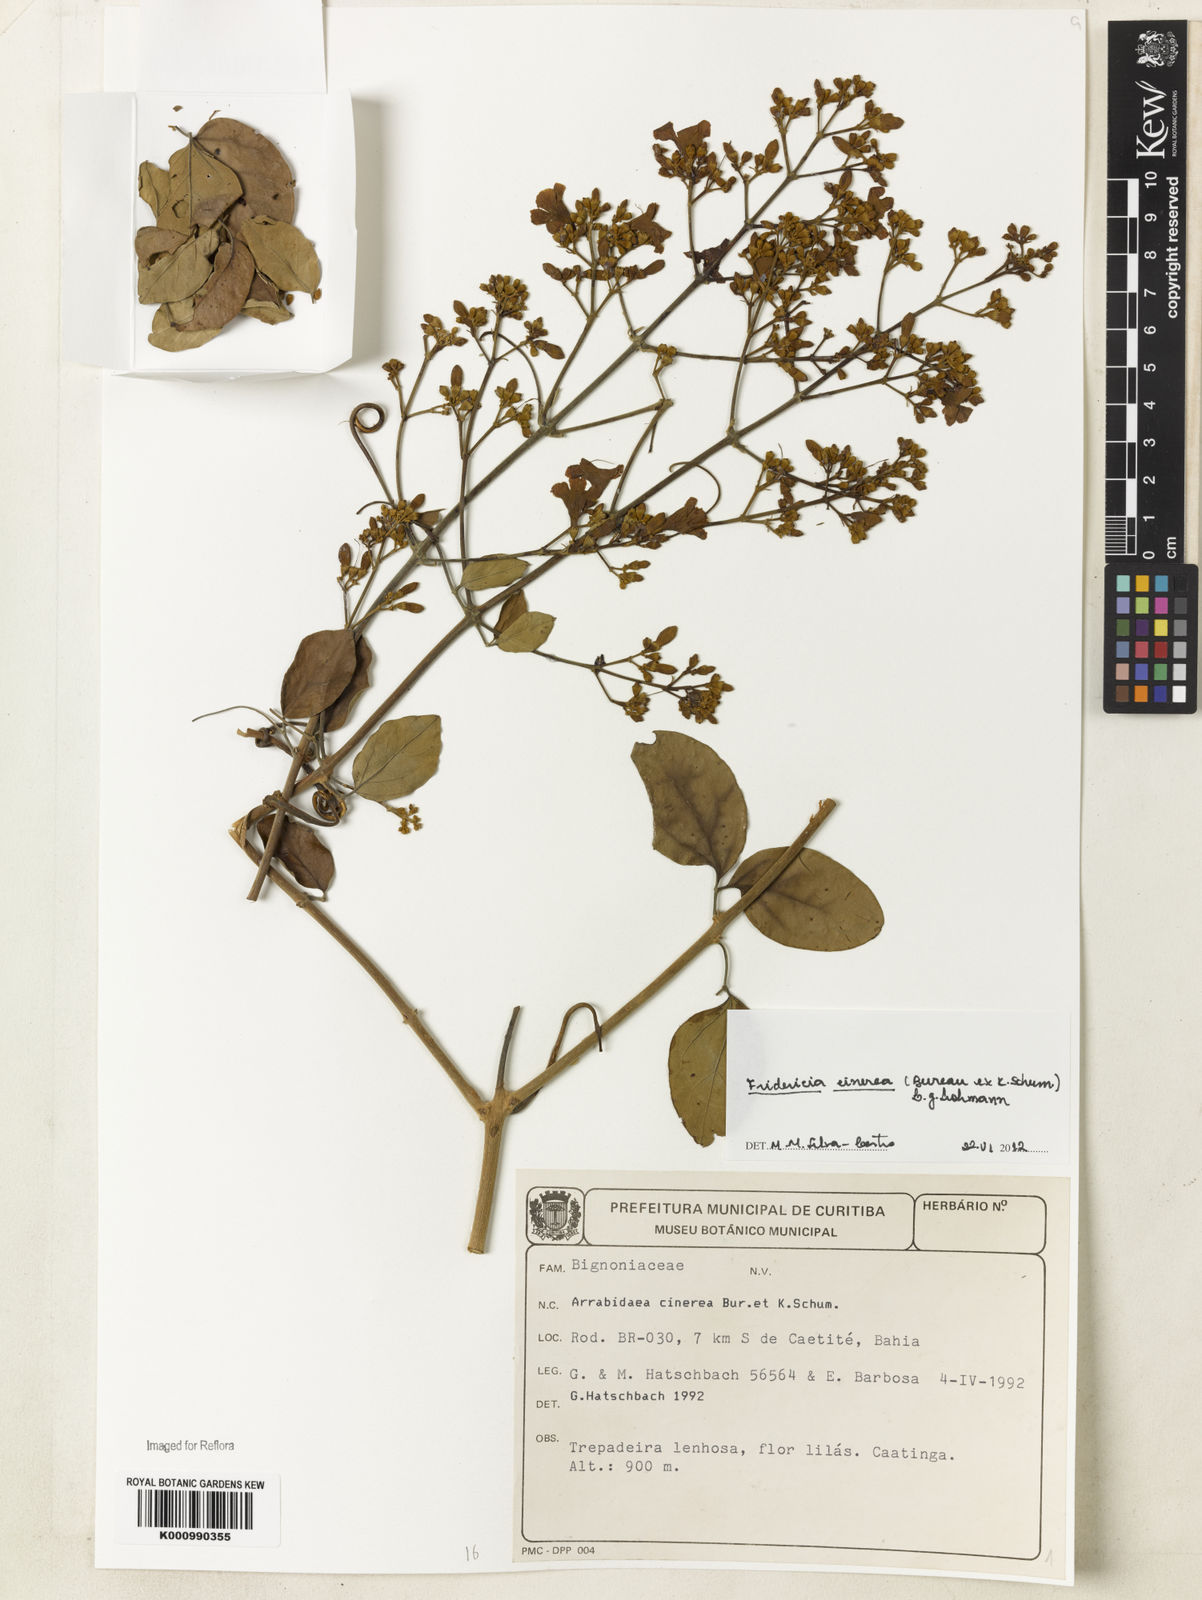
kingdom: Plantae
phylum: Tracheophyta
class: Magnoliopsida
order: Lamiales
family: Bignoniaceae
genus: Fridericia
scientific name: Fridericia cinerea
